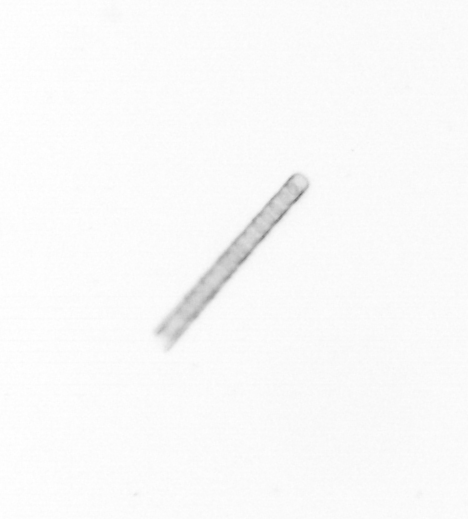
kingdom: Chromista
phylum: Ochrophyta
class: Bacillariophyceae
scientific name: Bacillariophyceae
